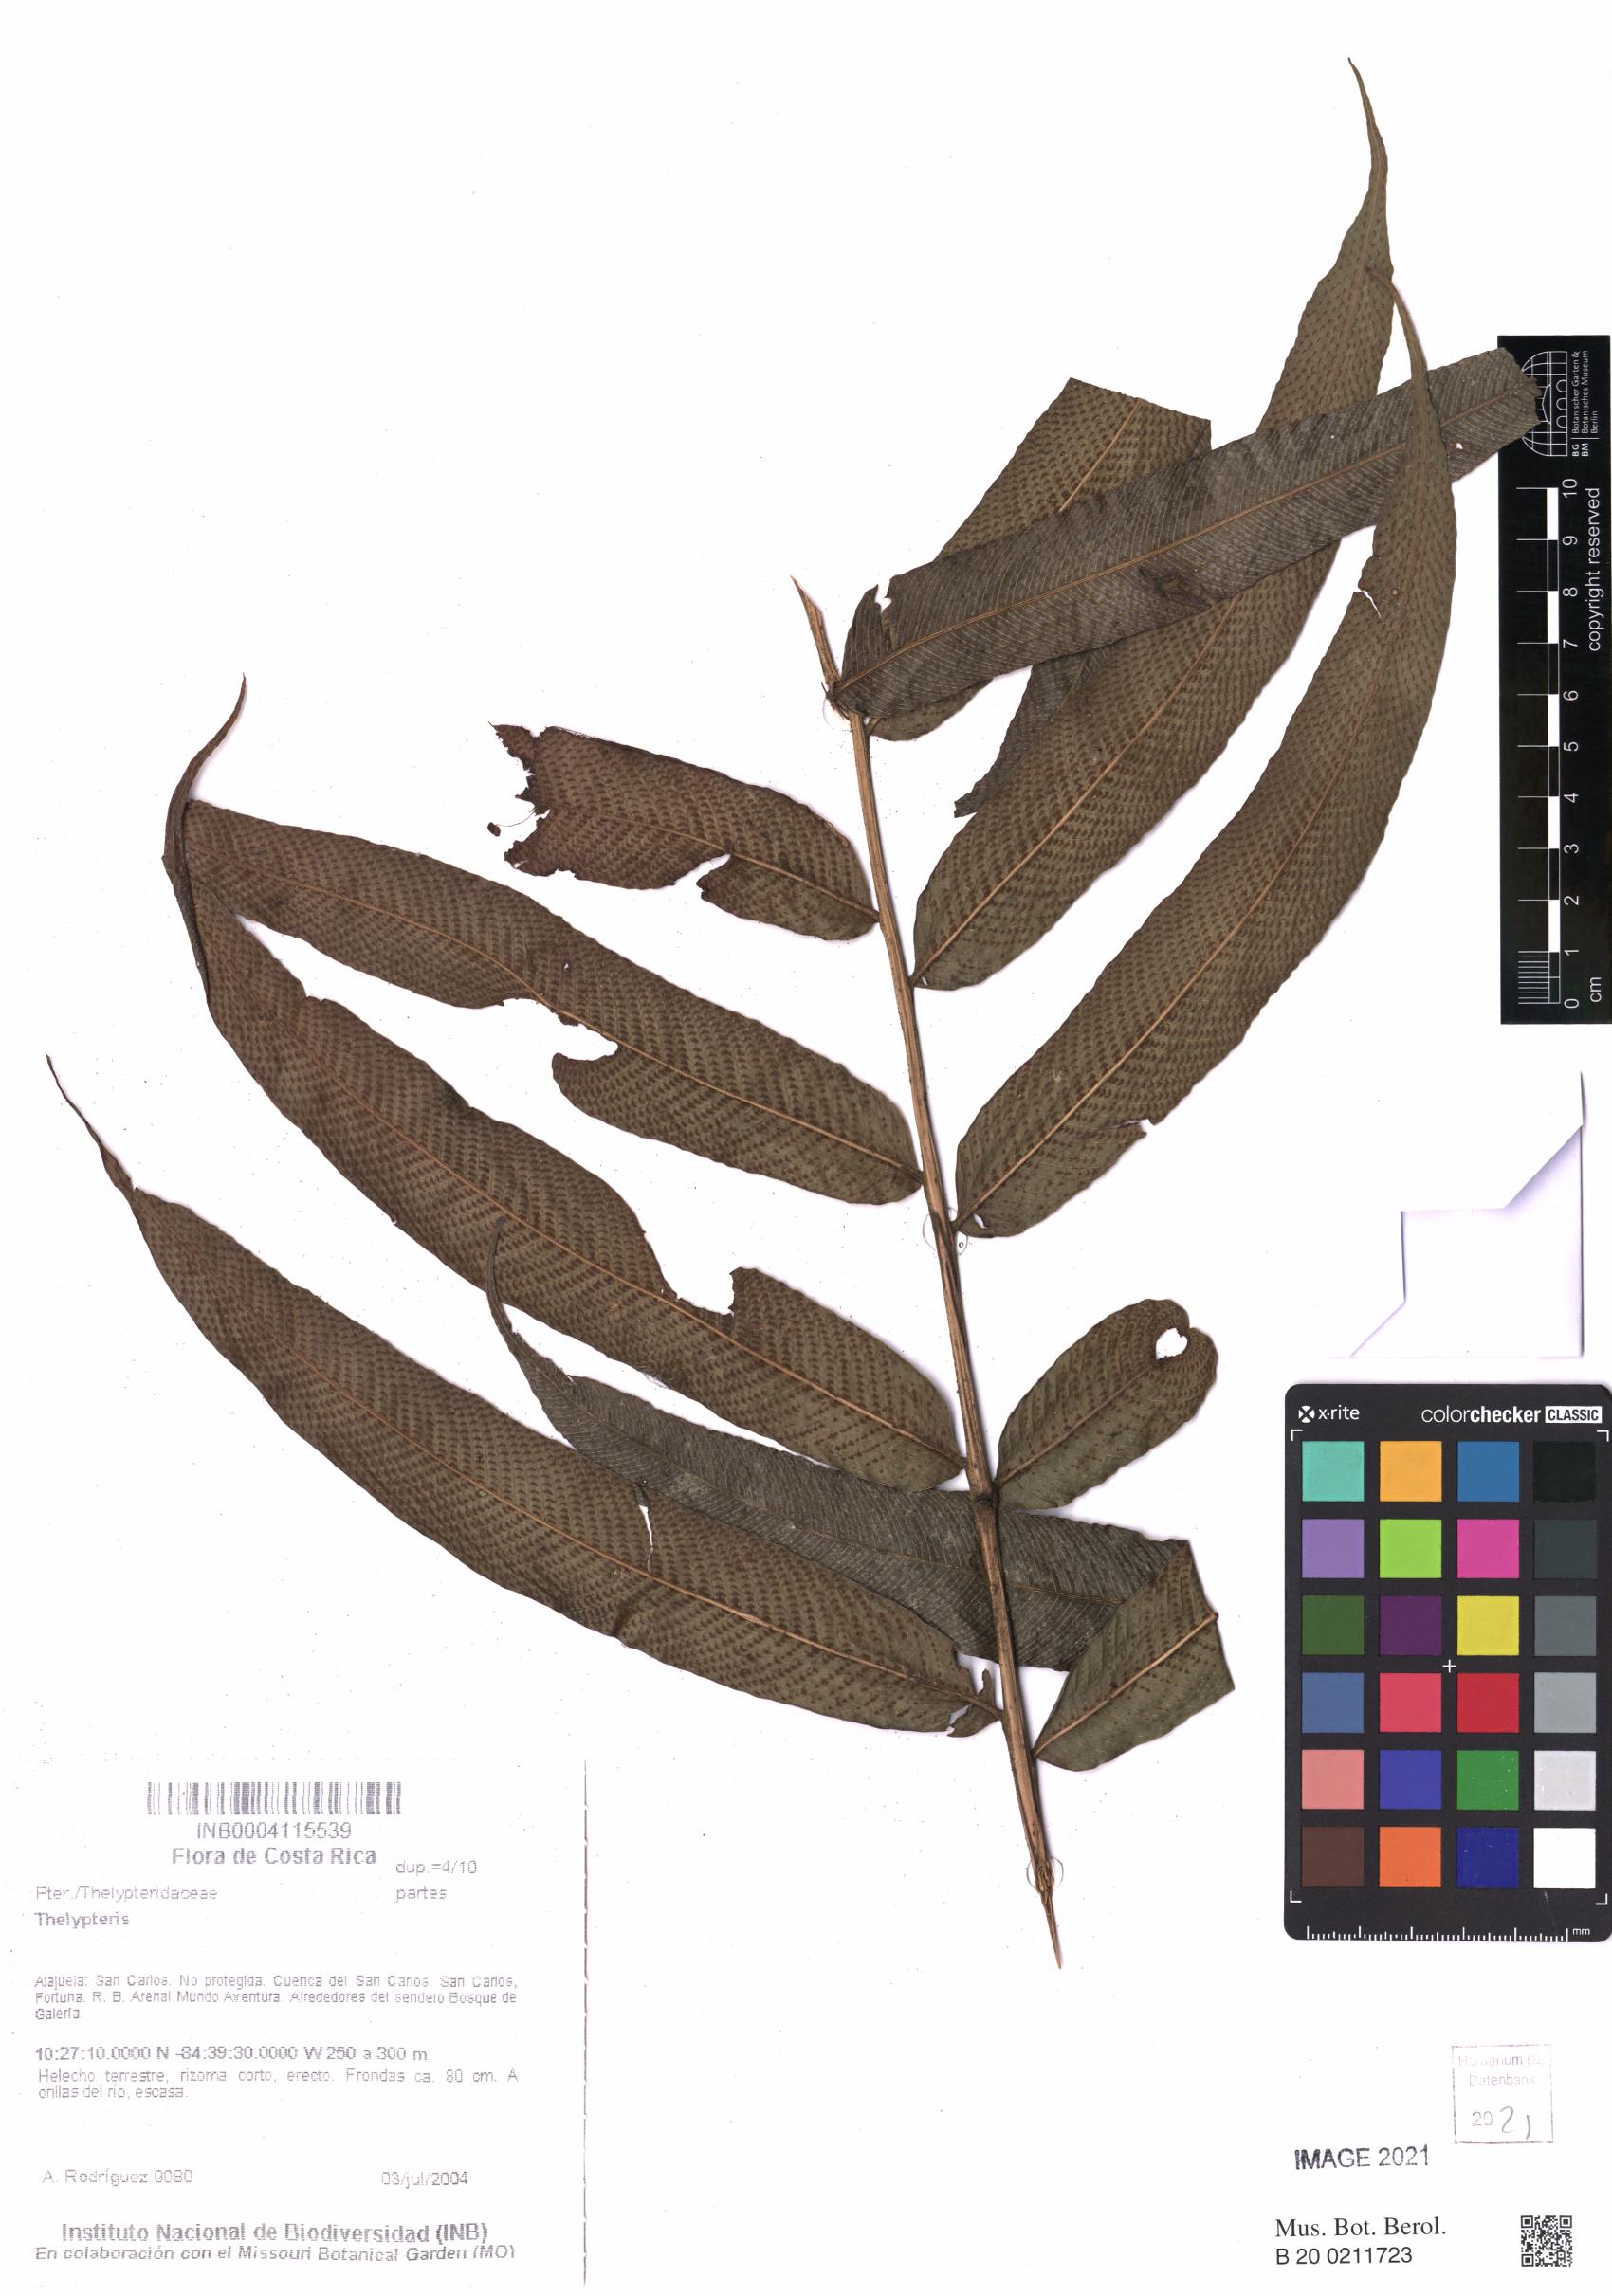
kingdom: Plantae
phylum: Tracheophyta
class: Polypodiopsida
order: Polypodiales
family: Thelypteridaceae
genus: Meniscium
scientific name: Meniscium arborescens
